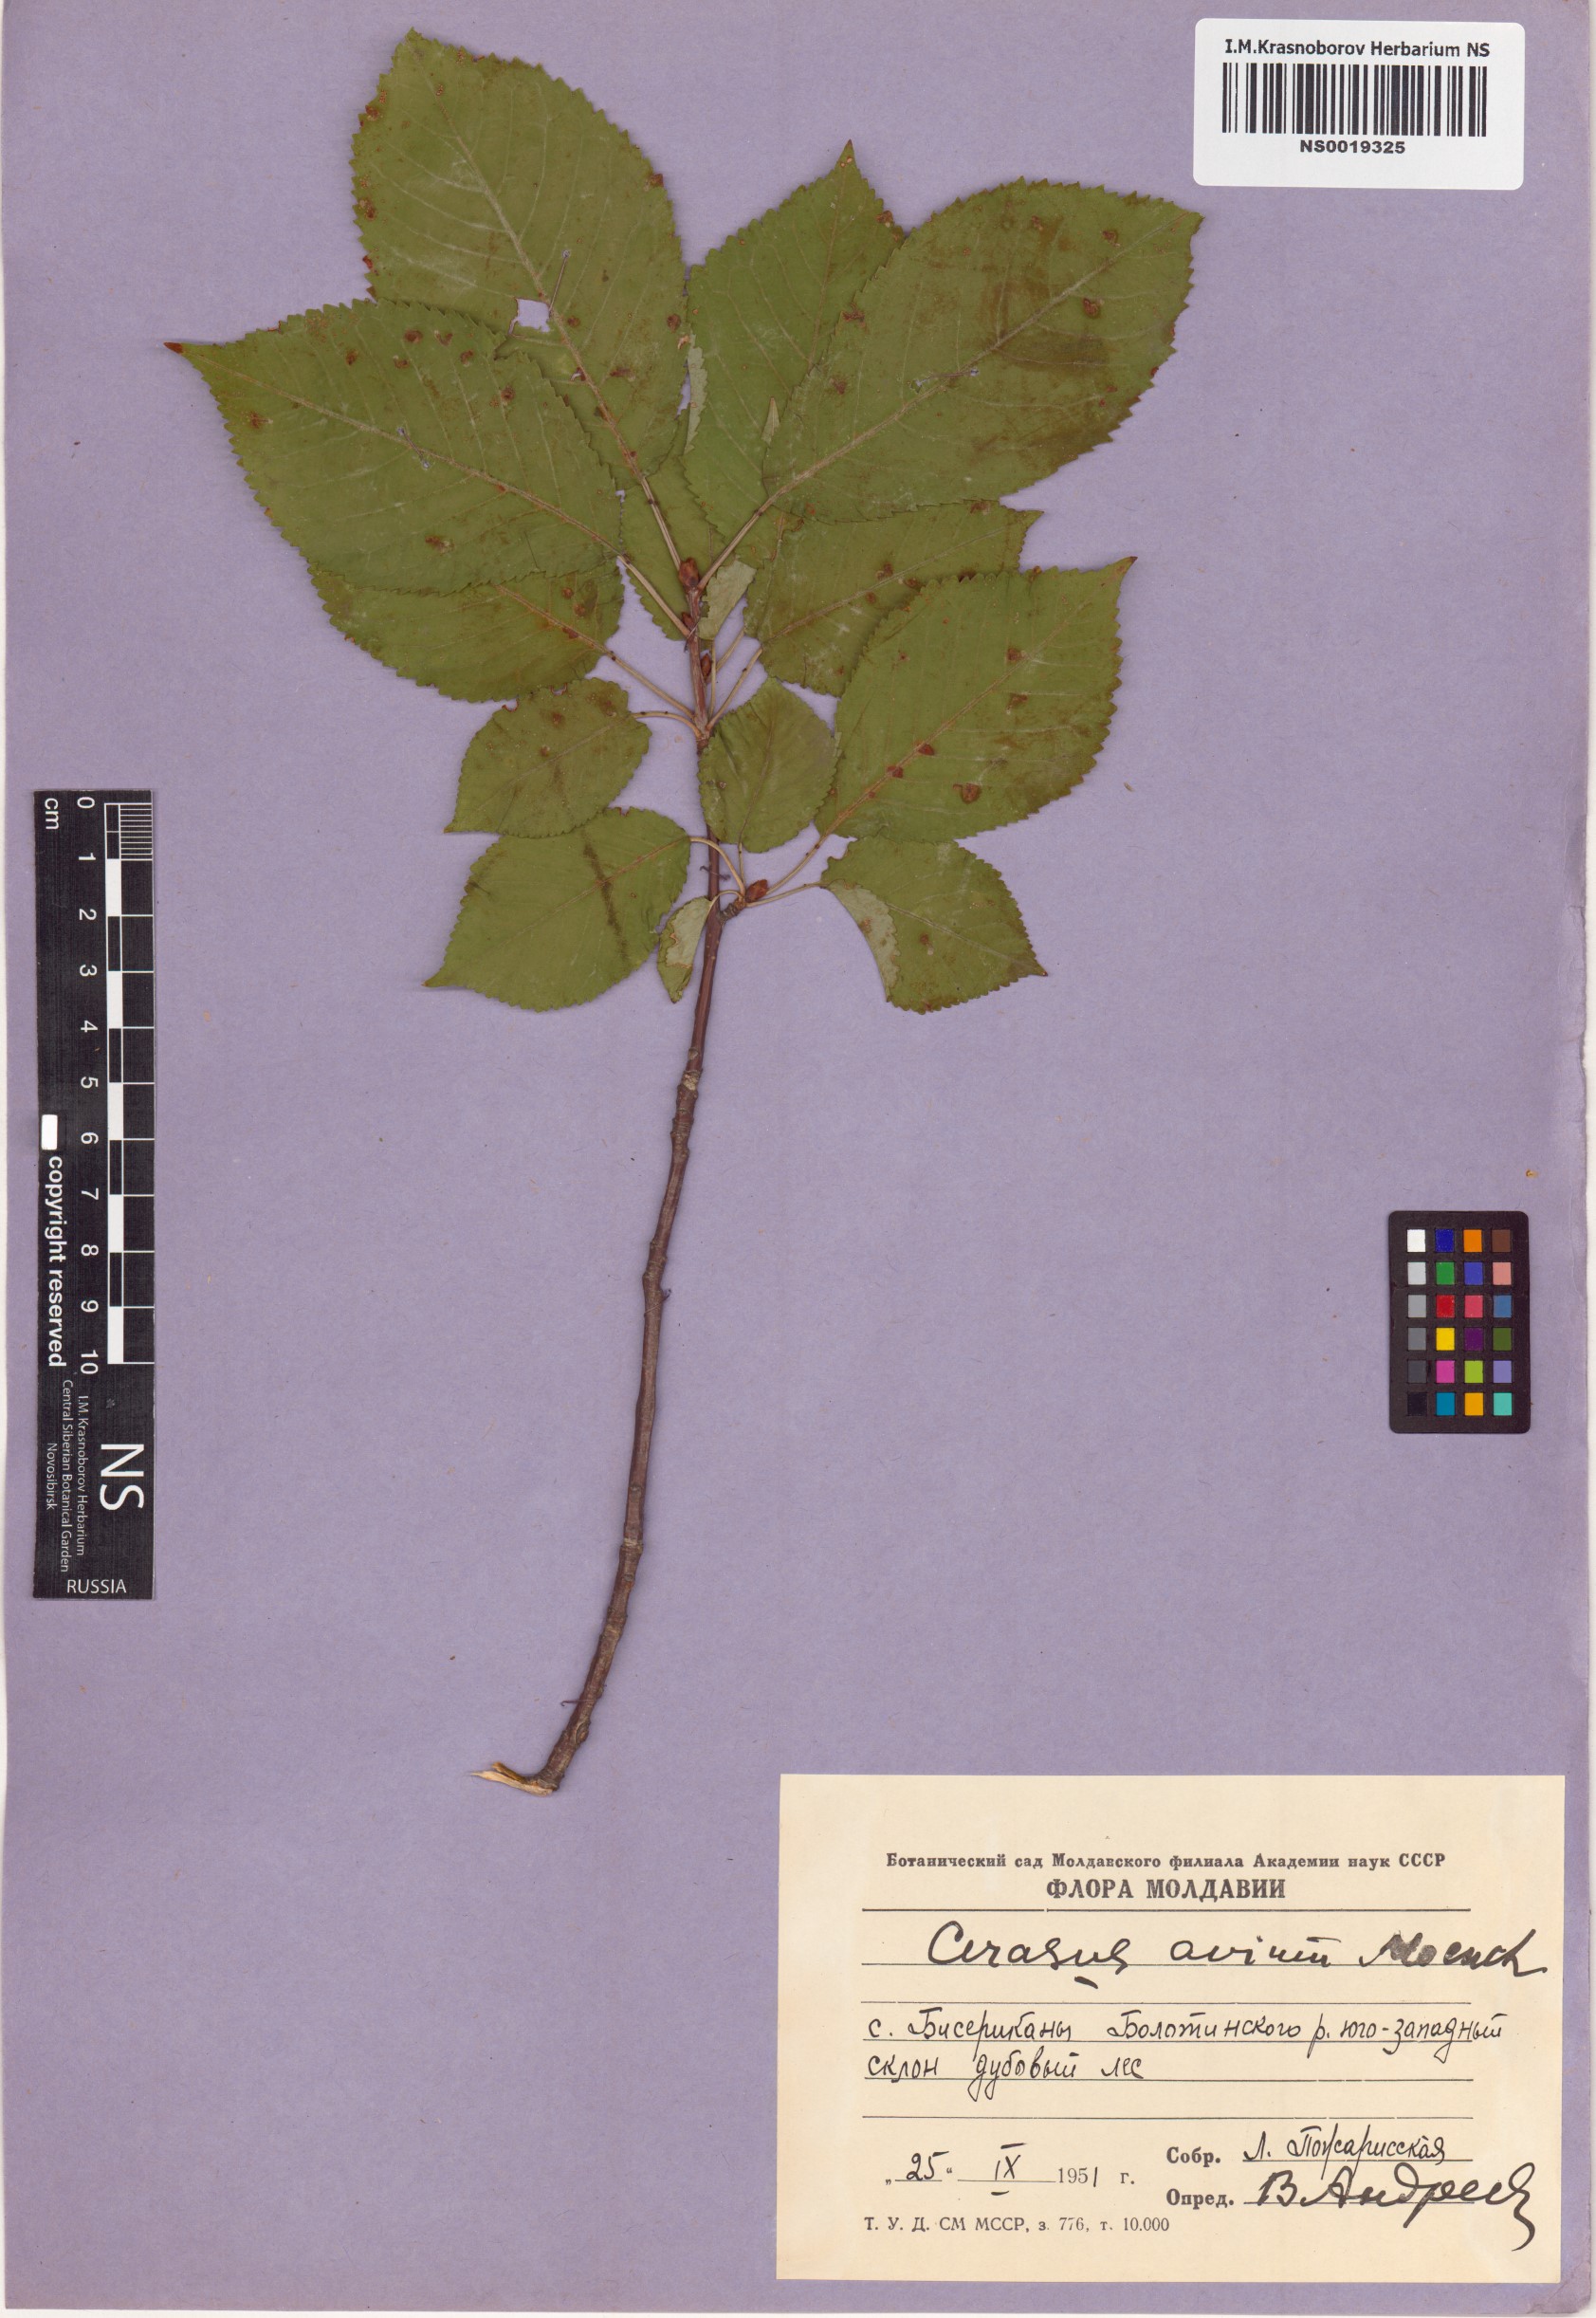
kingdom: Plantae
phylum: Tracheophyta
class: Magnoliopsida
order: Rosales
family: Rosaceae
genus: Prunus
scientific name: Prunus avium
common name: Sweet cherry
